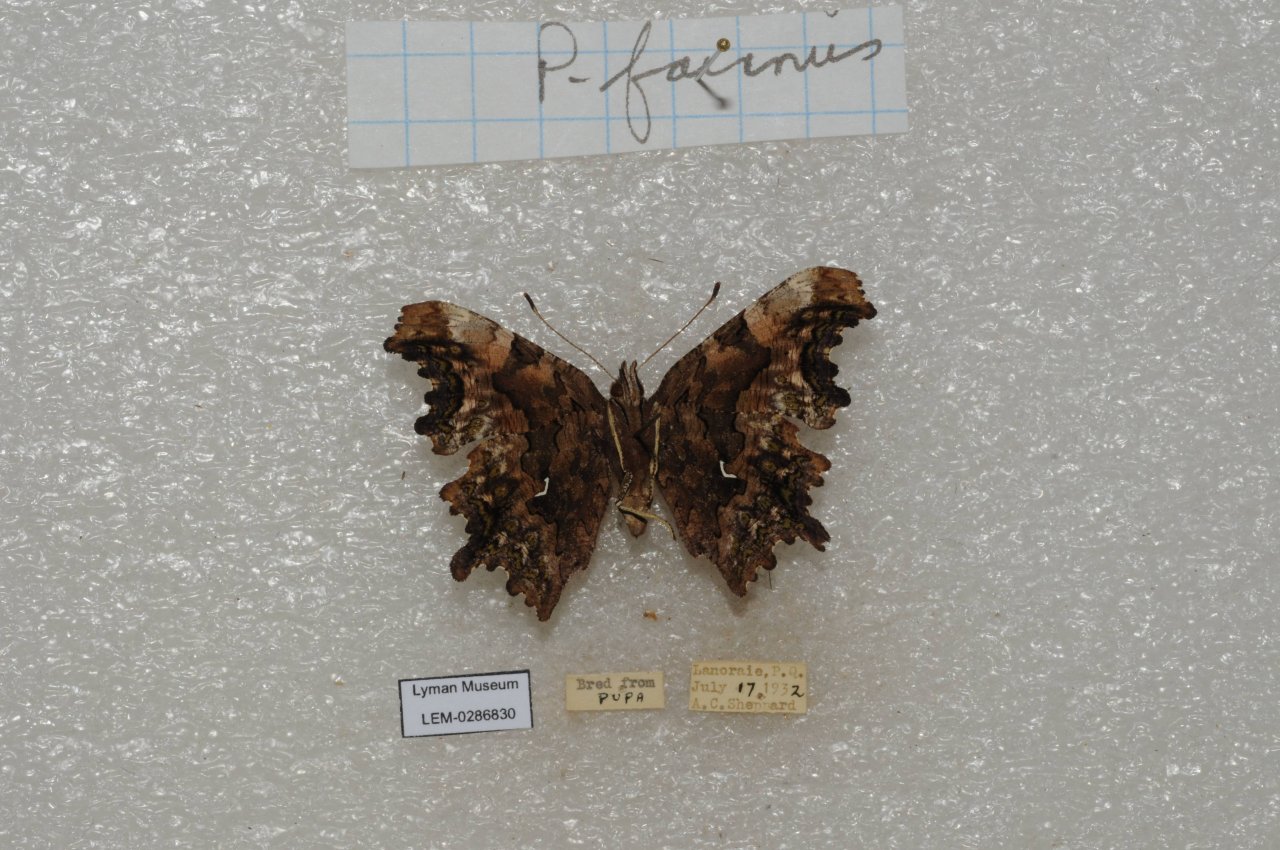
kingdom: Animalia
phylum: Arthropoda
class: Insecta
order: Lepidoptera
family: Nymphalidae
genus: Polygonia
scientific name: Polygonia faunus
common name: Green Comma
